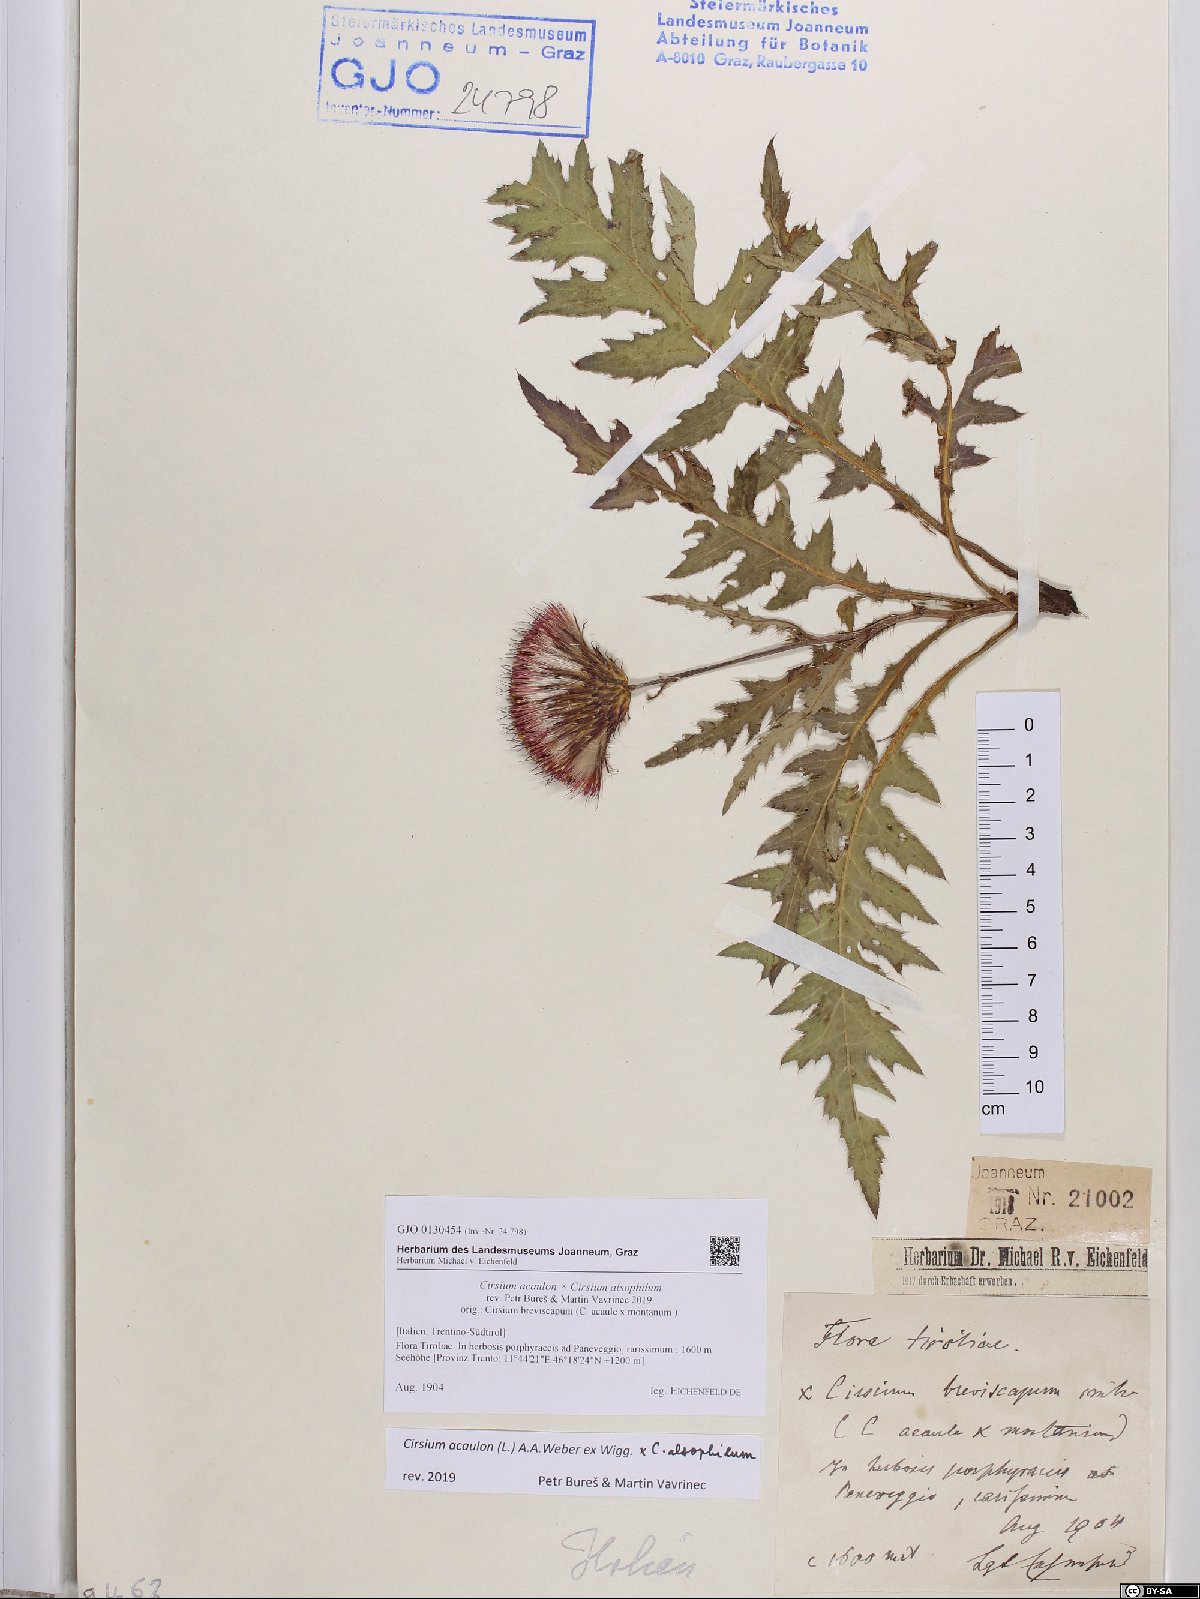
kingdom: Plantae
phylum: Tracheophyta
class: Magnoliopsida
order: Asterales
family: Asteraceae
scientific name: Asteraceae
